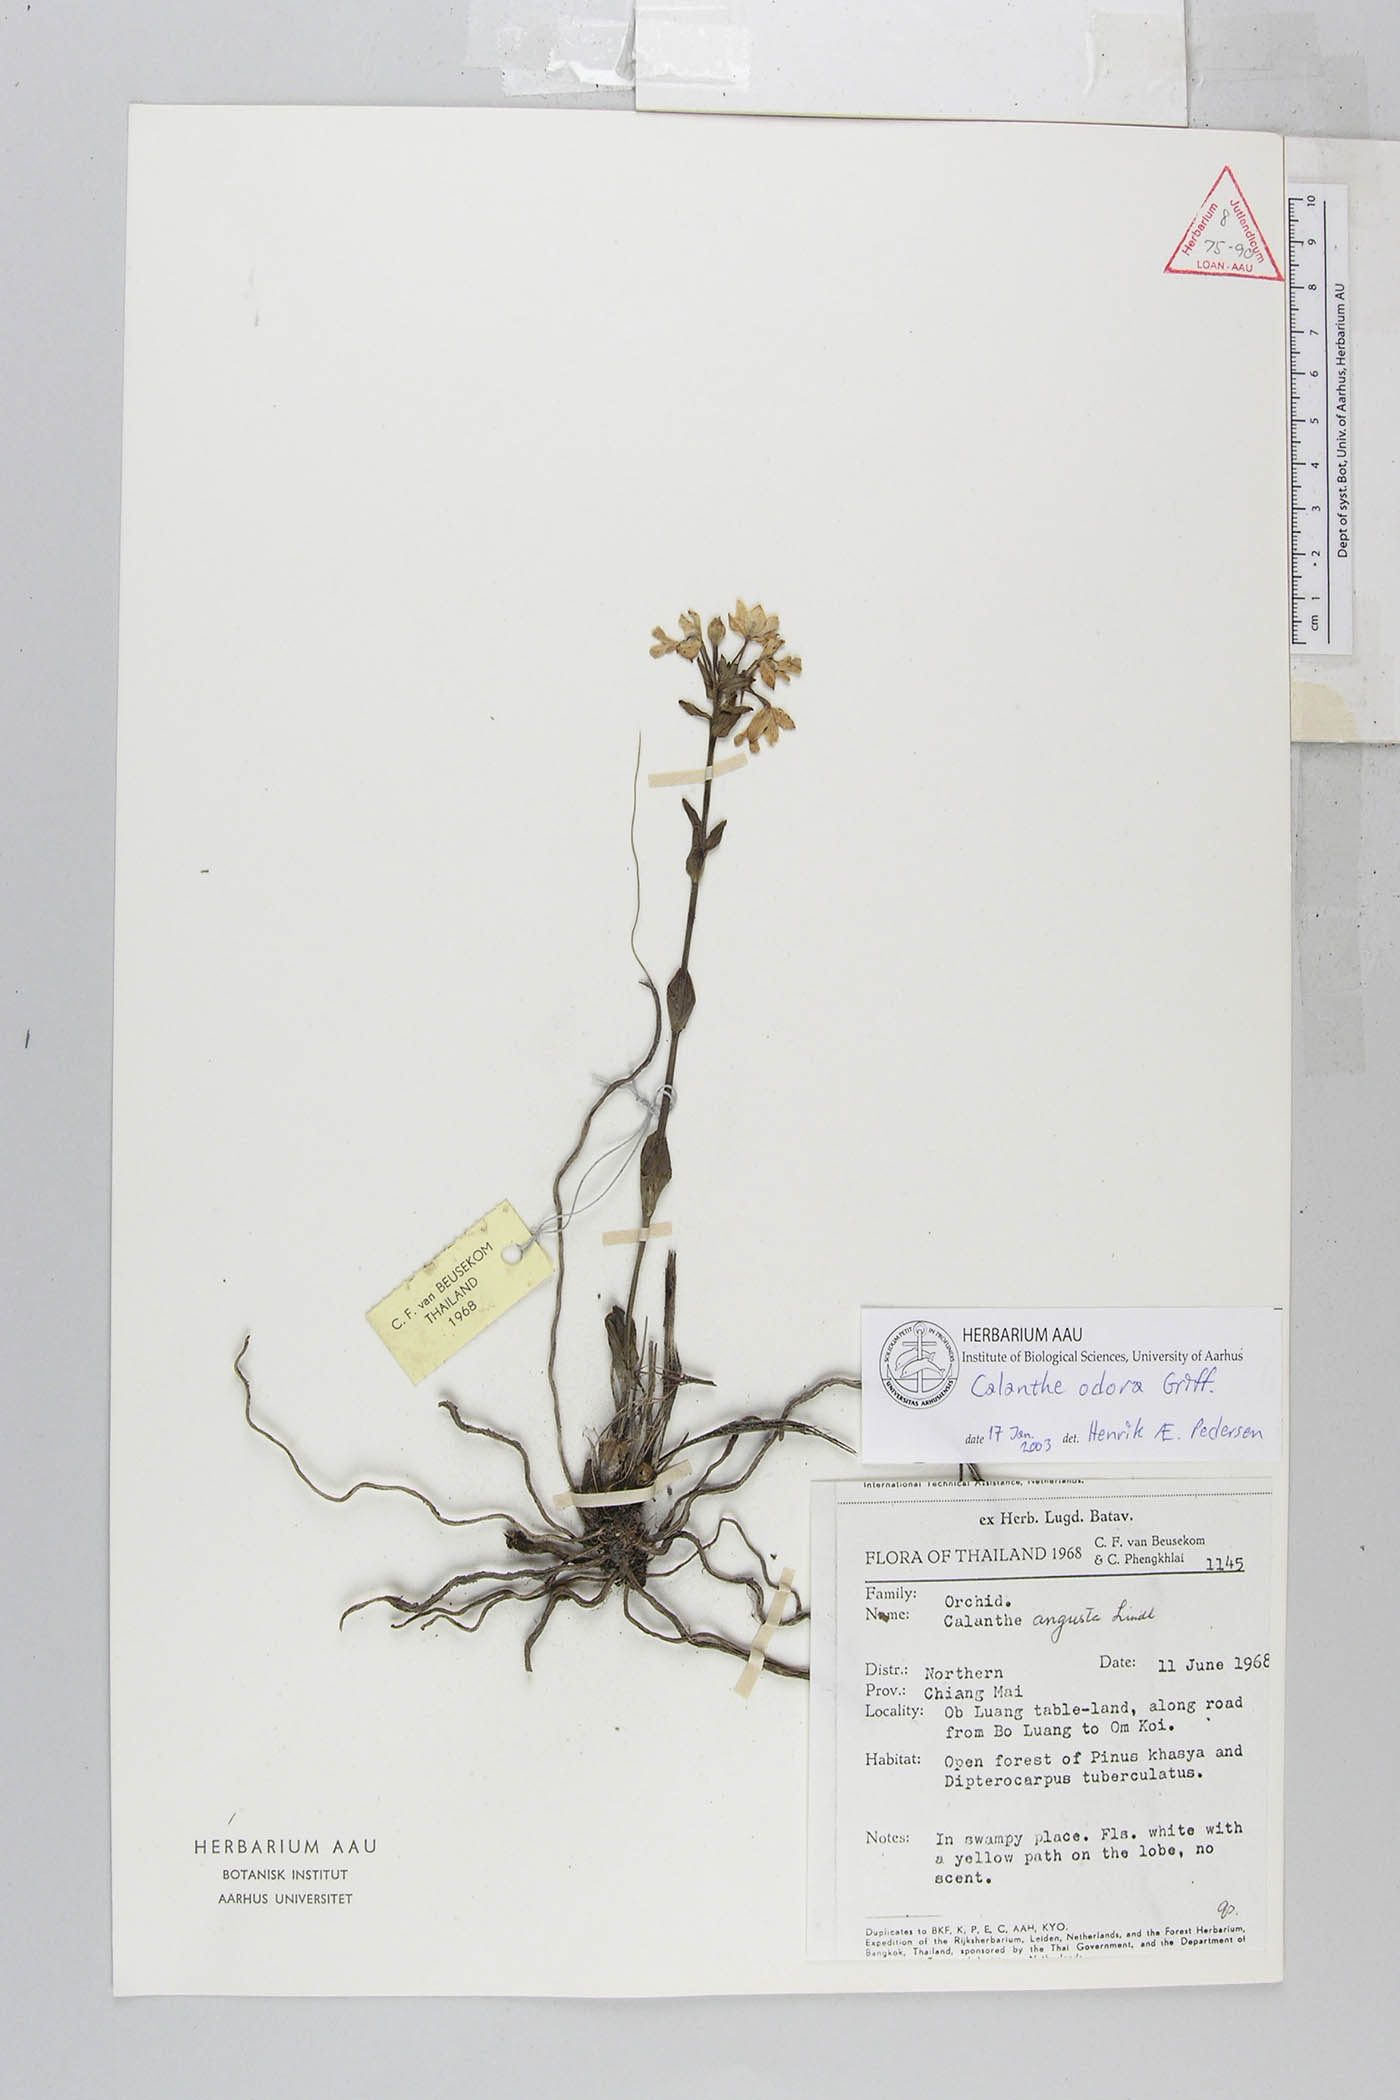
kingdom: Plantae
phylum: Tracheophyta
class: Liliopsida
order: Asparagales
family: Orchidaceae
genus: Calanthe
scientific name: Calanthe odora
